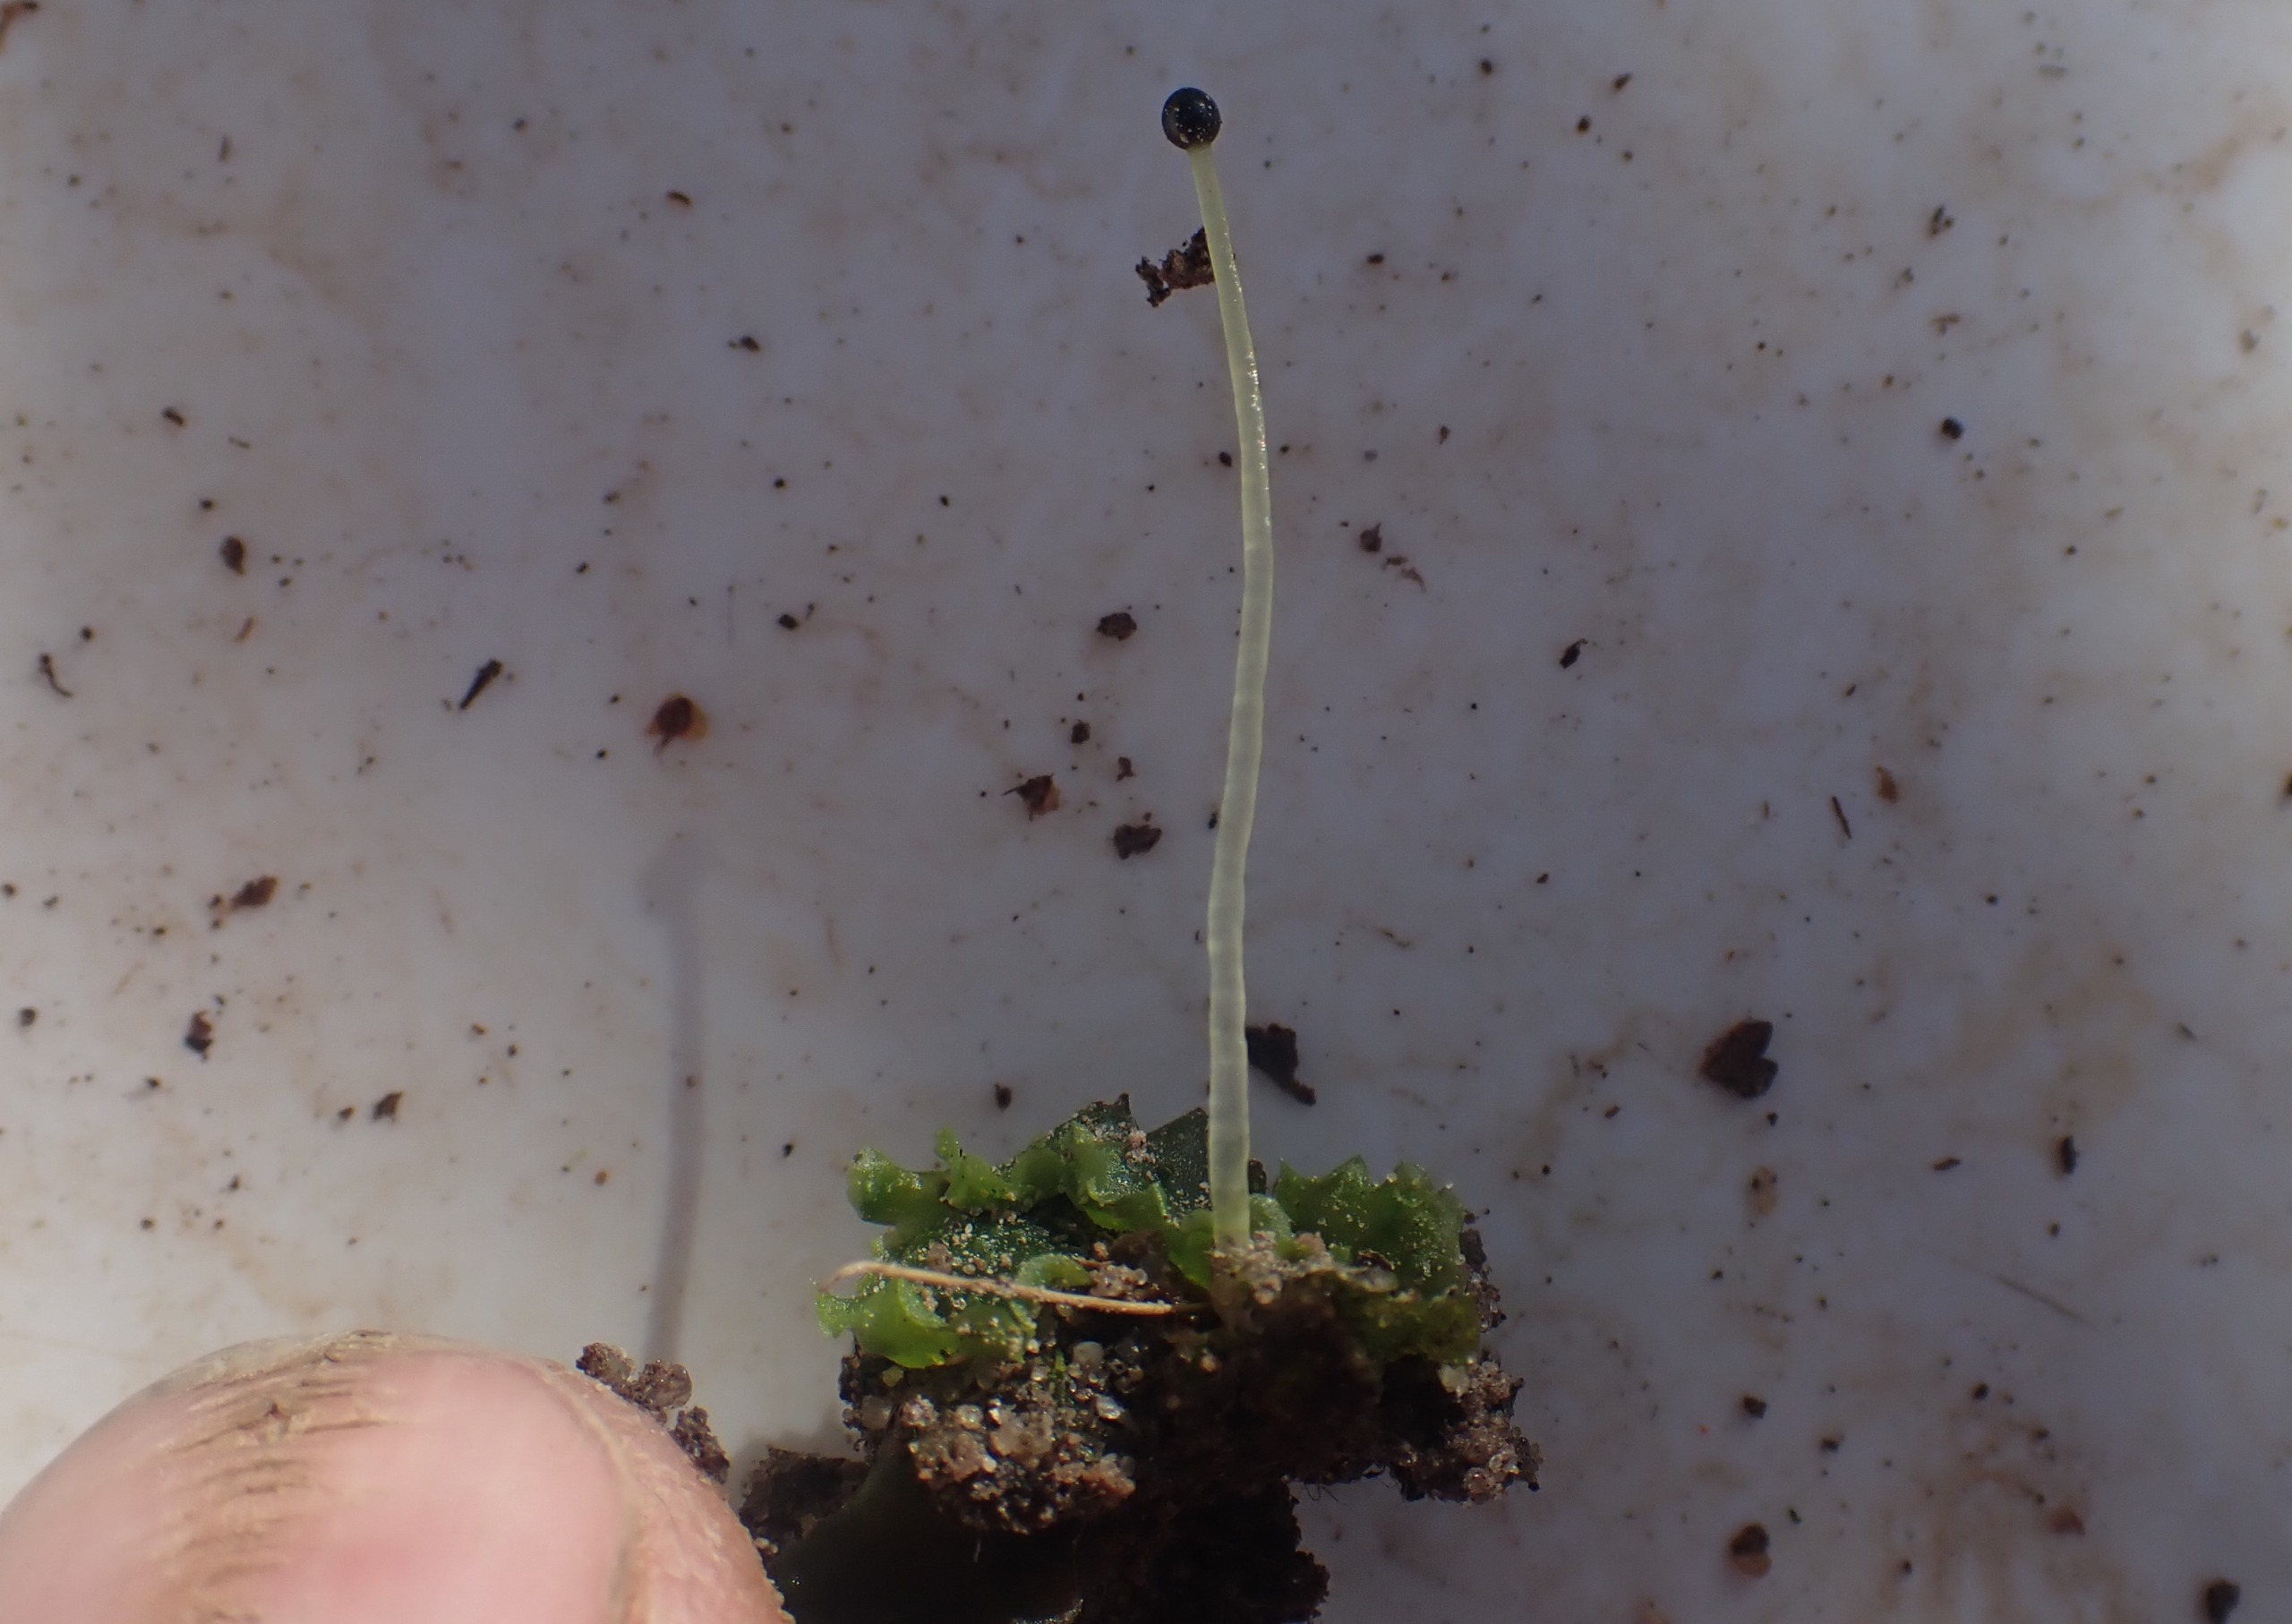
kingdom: Plantae
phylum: Marchantiophyta
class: Jungermanniopsida
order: Pelliales
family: Pelliaceae
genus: Pellia
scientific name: Pellia epiphylla
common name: Enbo ribbeløv
